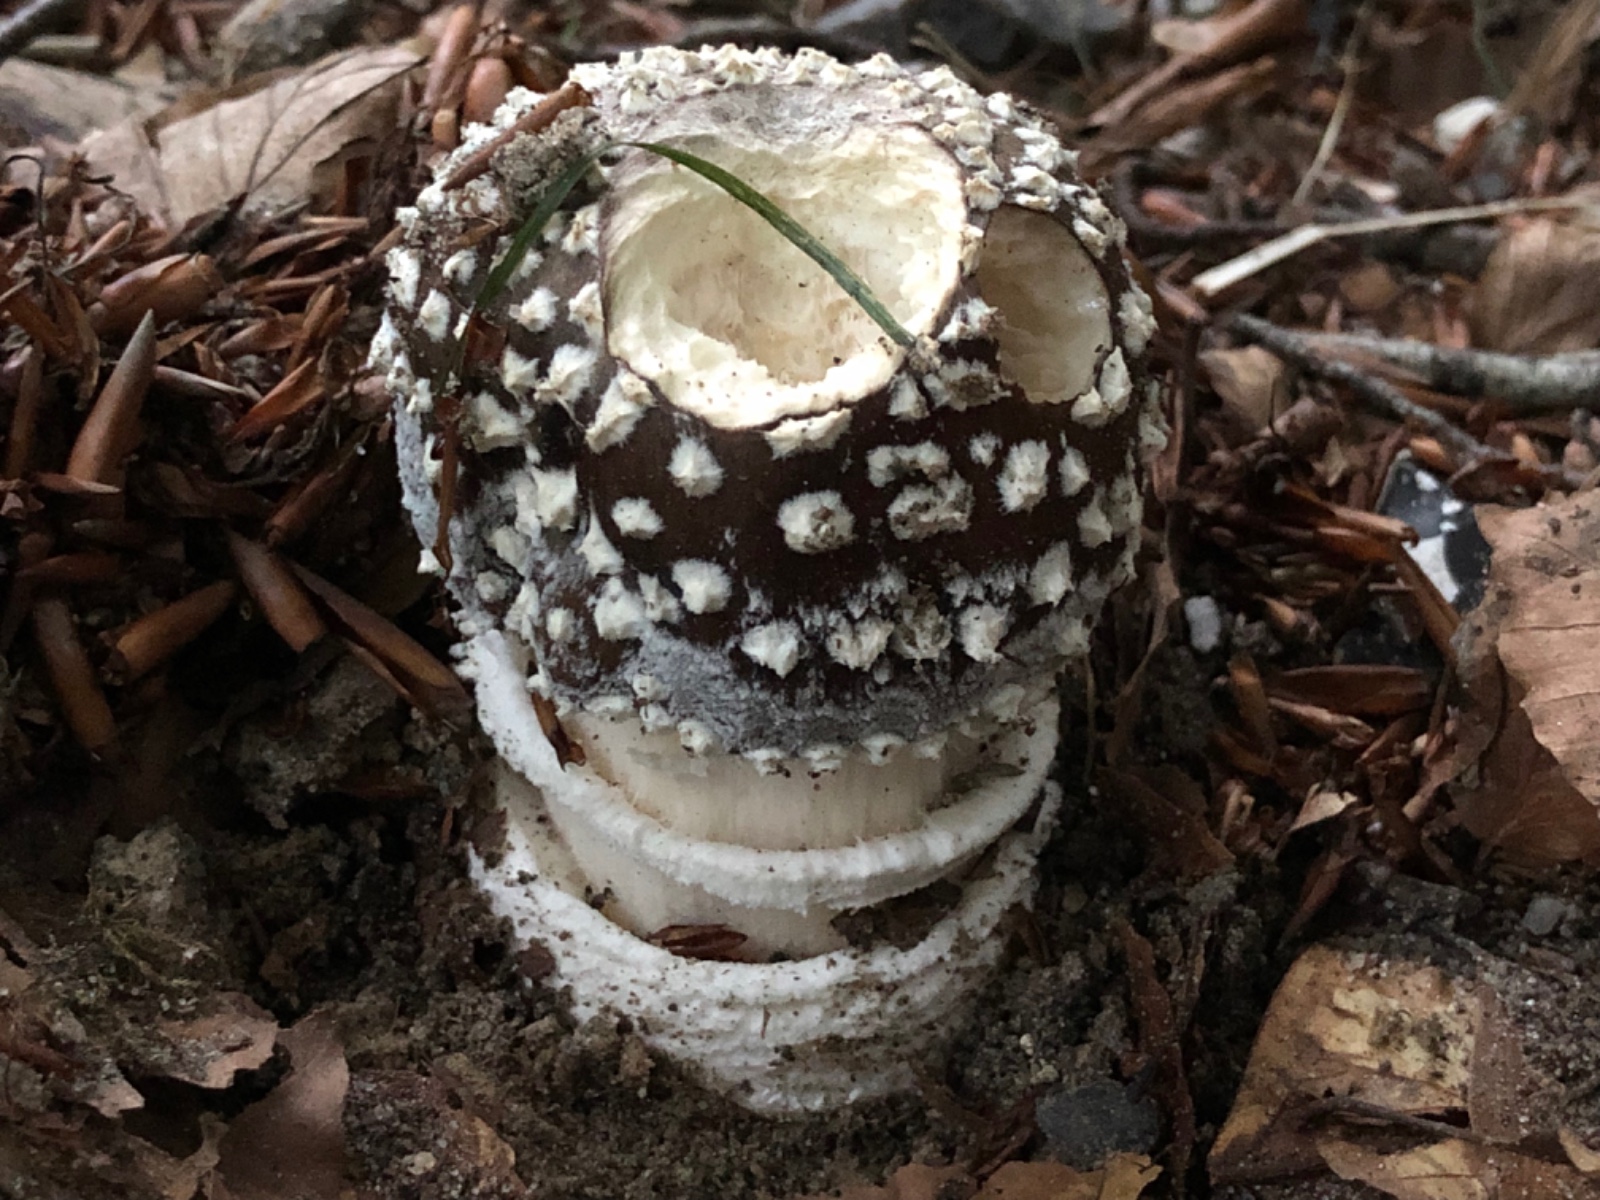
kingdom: Fungi
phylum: Basidiomycota
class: Agaricomycetes
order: Agaricales
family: Amanitaceae
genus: Amanita
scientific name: Amanita pantherina
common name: panter-fluesvamp
